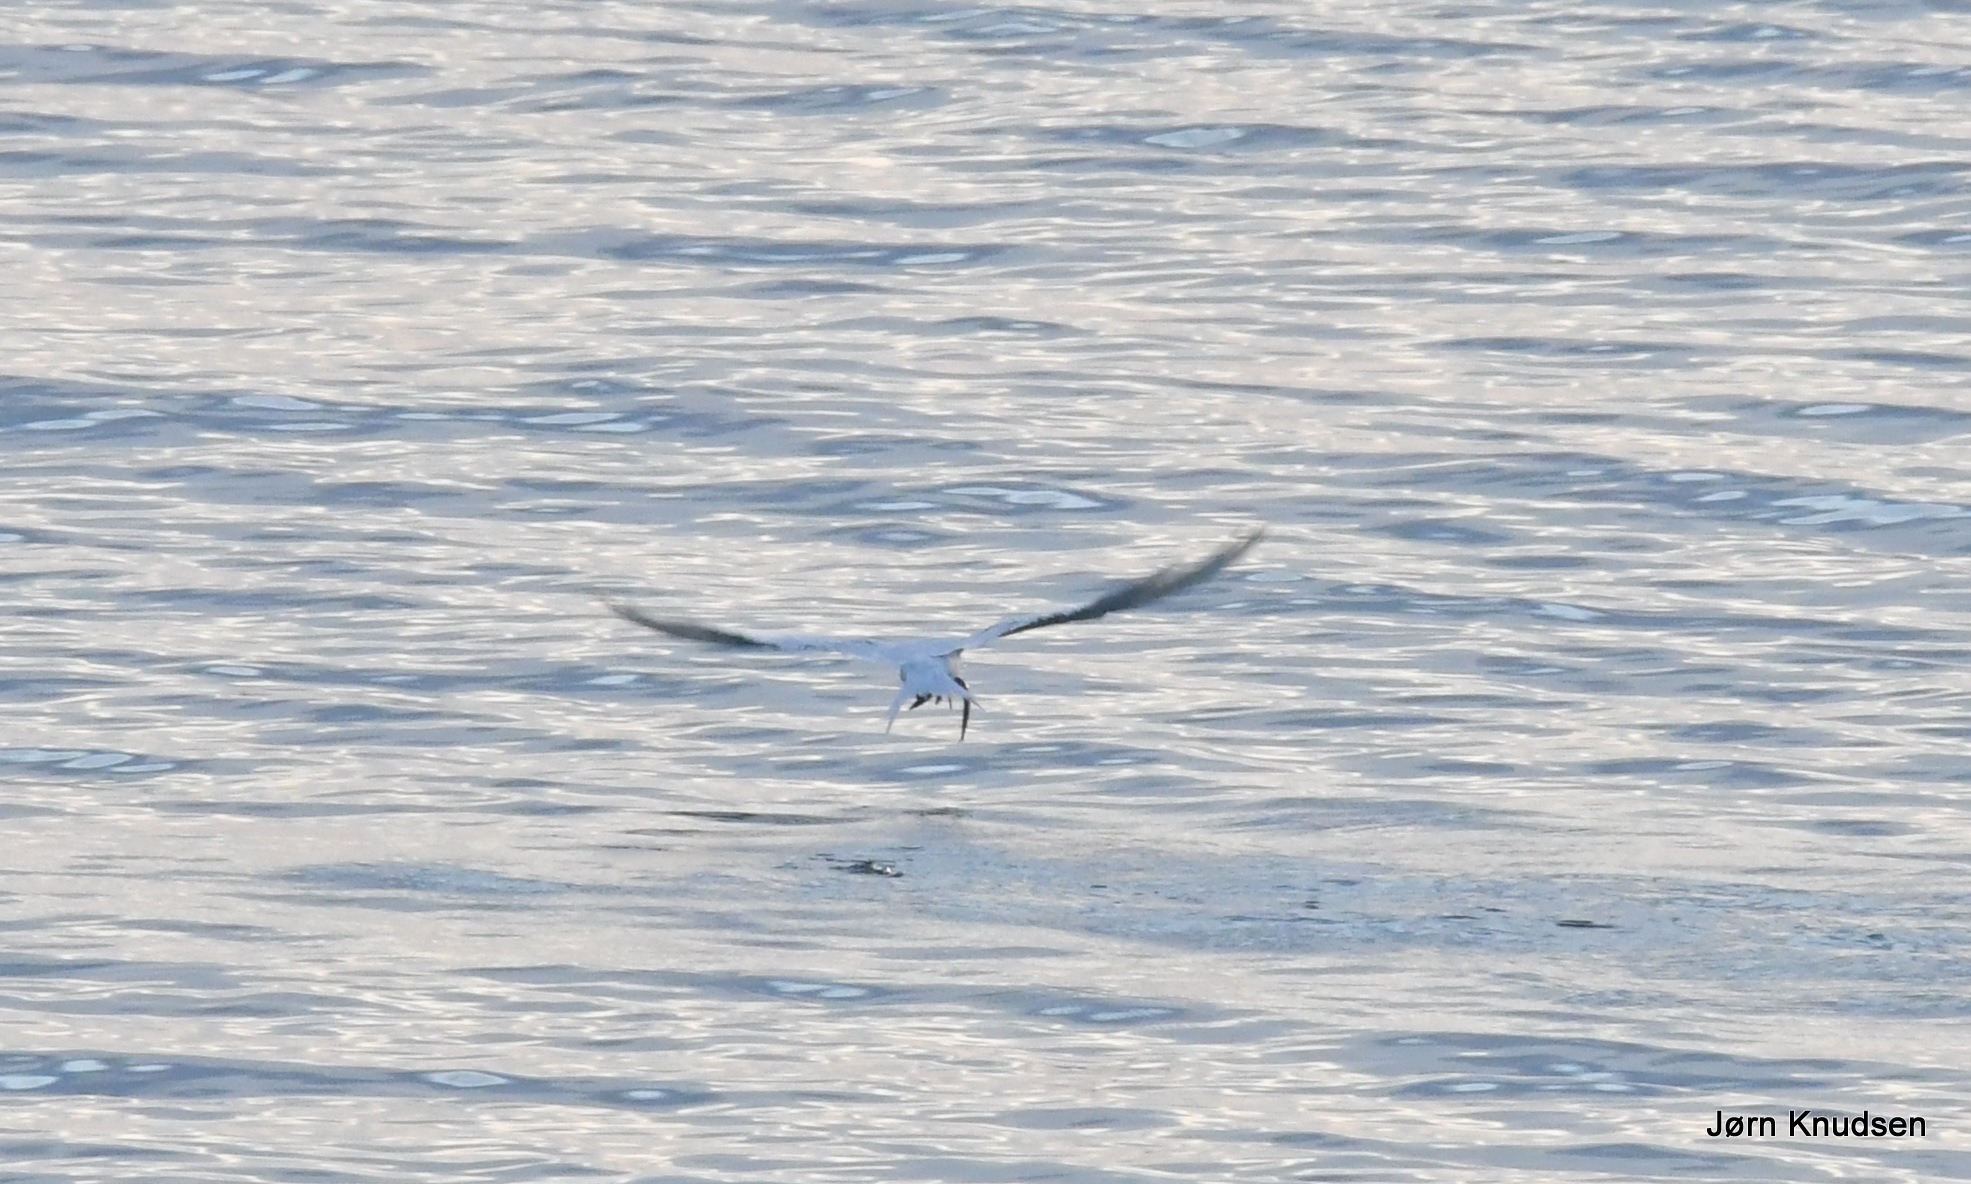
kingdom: Animalia
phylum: Chordata
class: Aves
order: Charadriiformes
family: Laridae
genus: Thalasseus
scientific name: Thalasseus sandvicensis
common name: Splitterne
